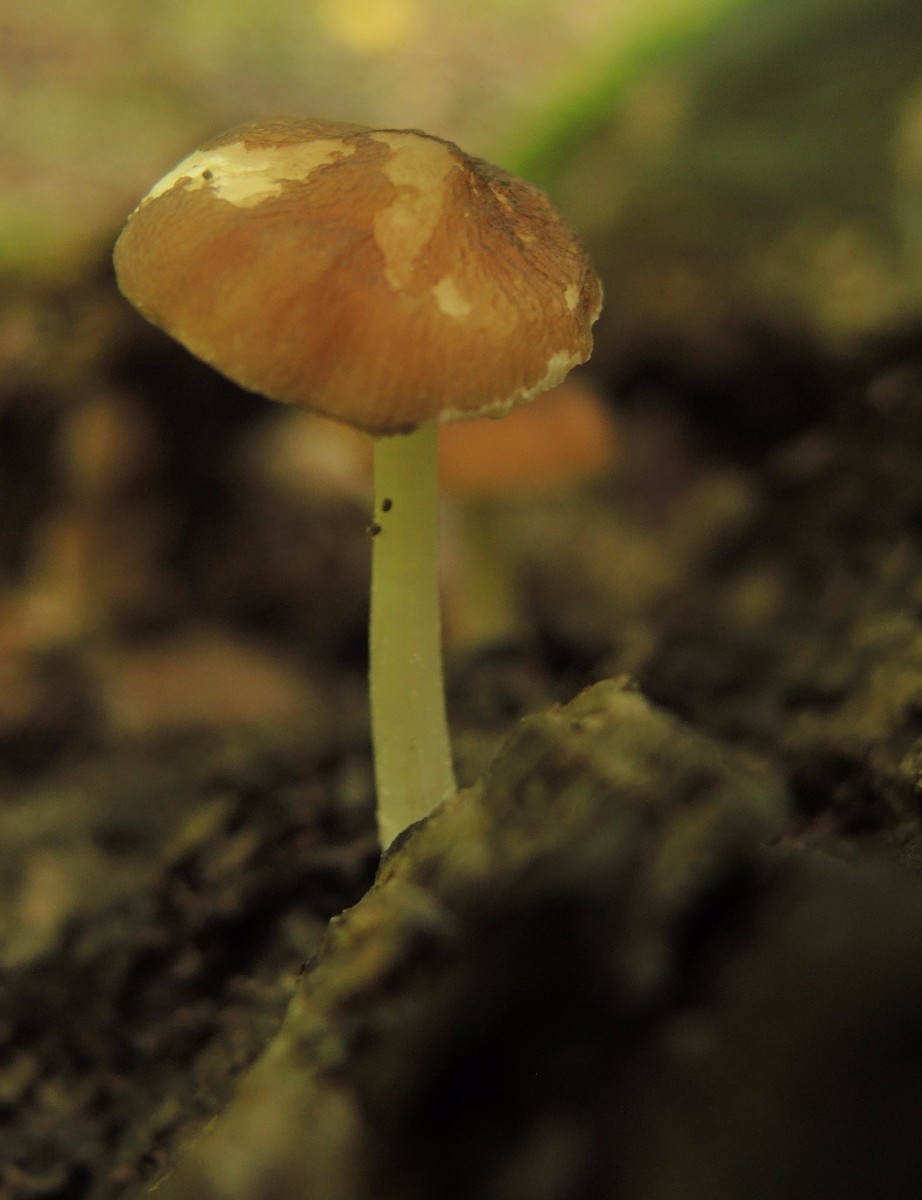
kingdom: Fungi
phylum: Basidiomycota
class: Agaricomycetes
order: Agaricales
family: Pluteaceae
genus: Pluteus
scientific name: Pluteus phlebophorus
